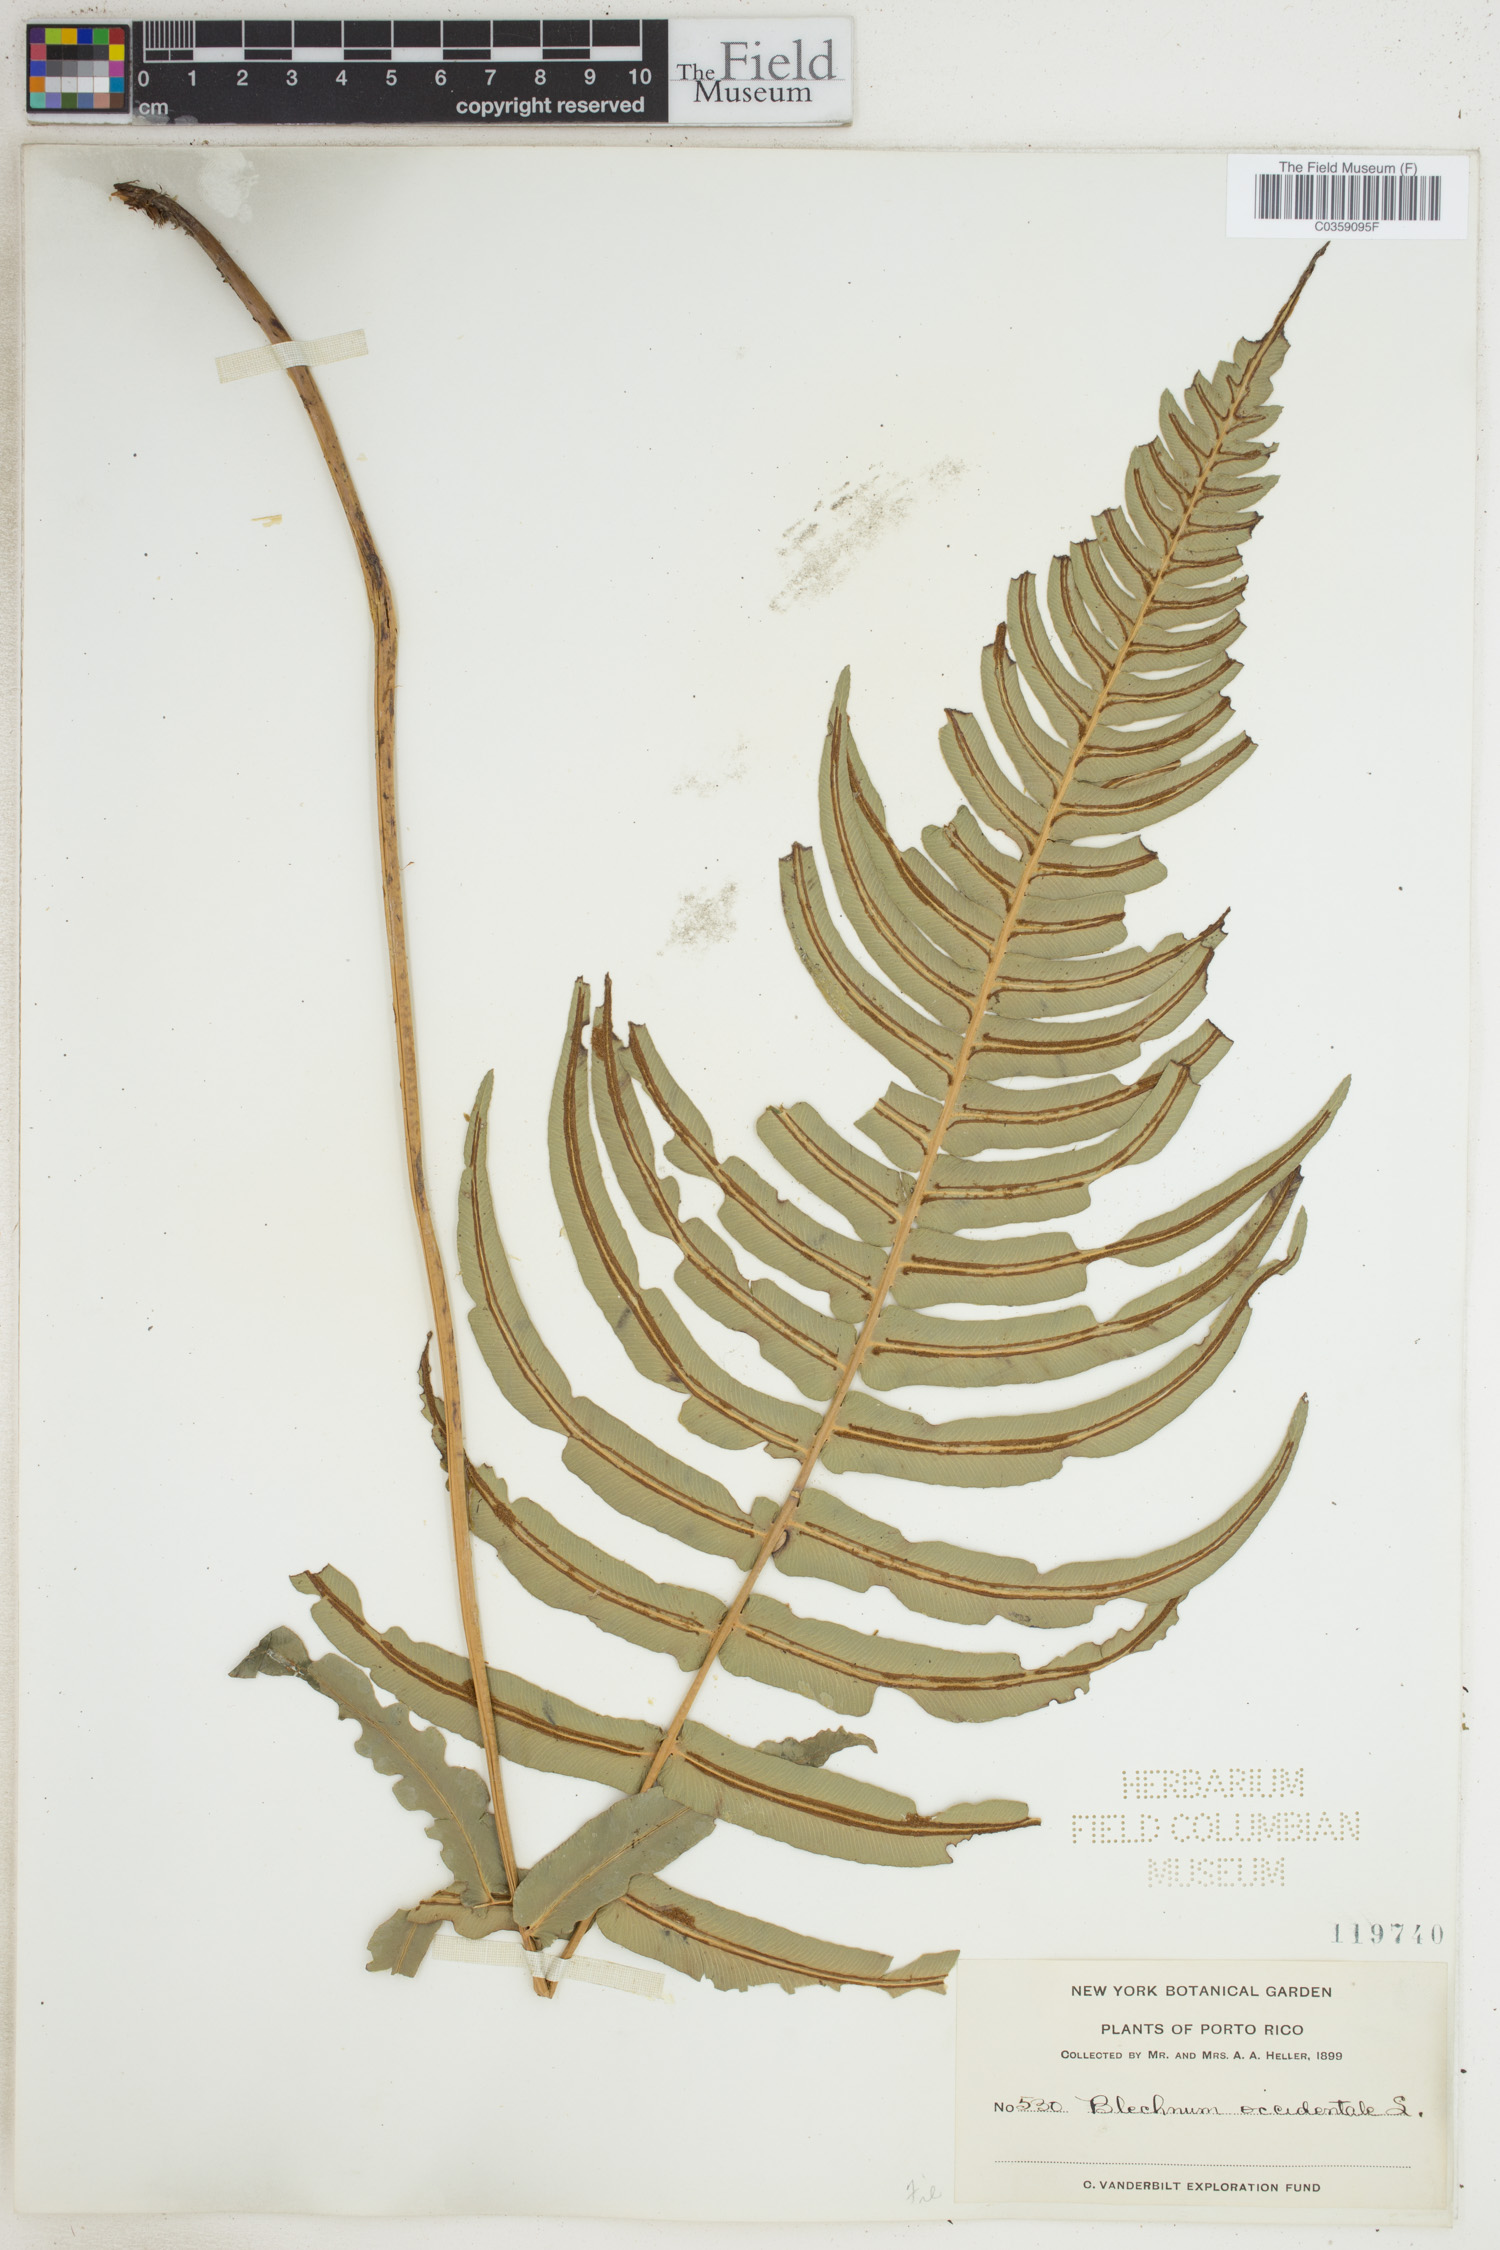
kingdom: Plantae
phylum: Tracheophyta
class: Polypodiopsida
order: Polypodiales
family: Blechnaceae
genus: Blechnum
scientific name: Blechnum occidentale
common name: Hammock fern
